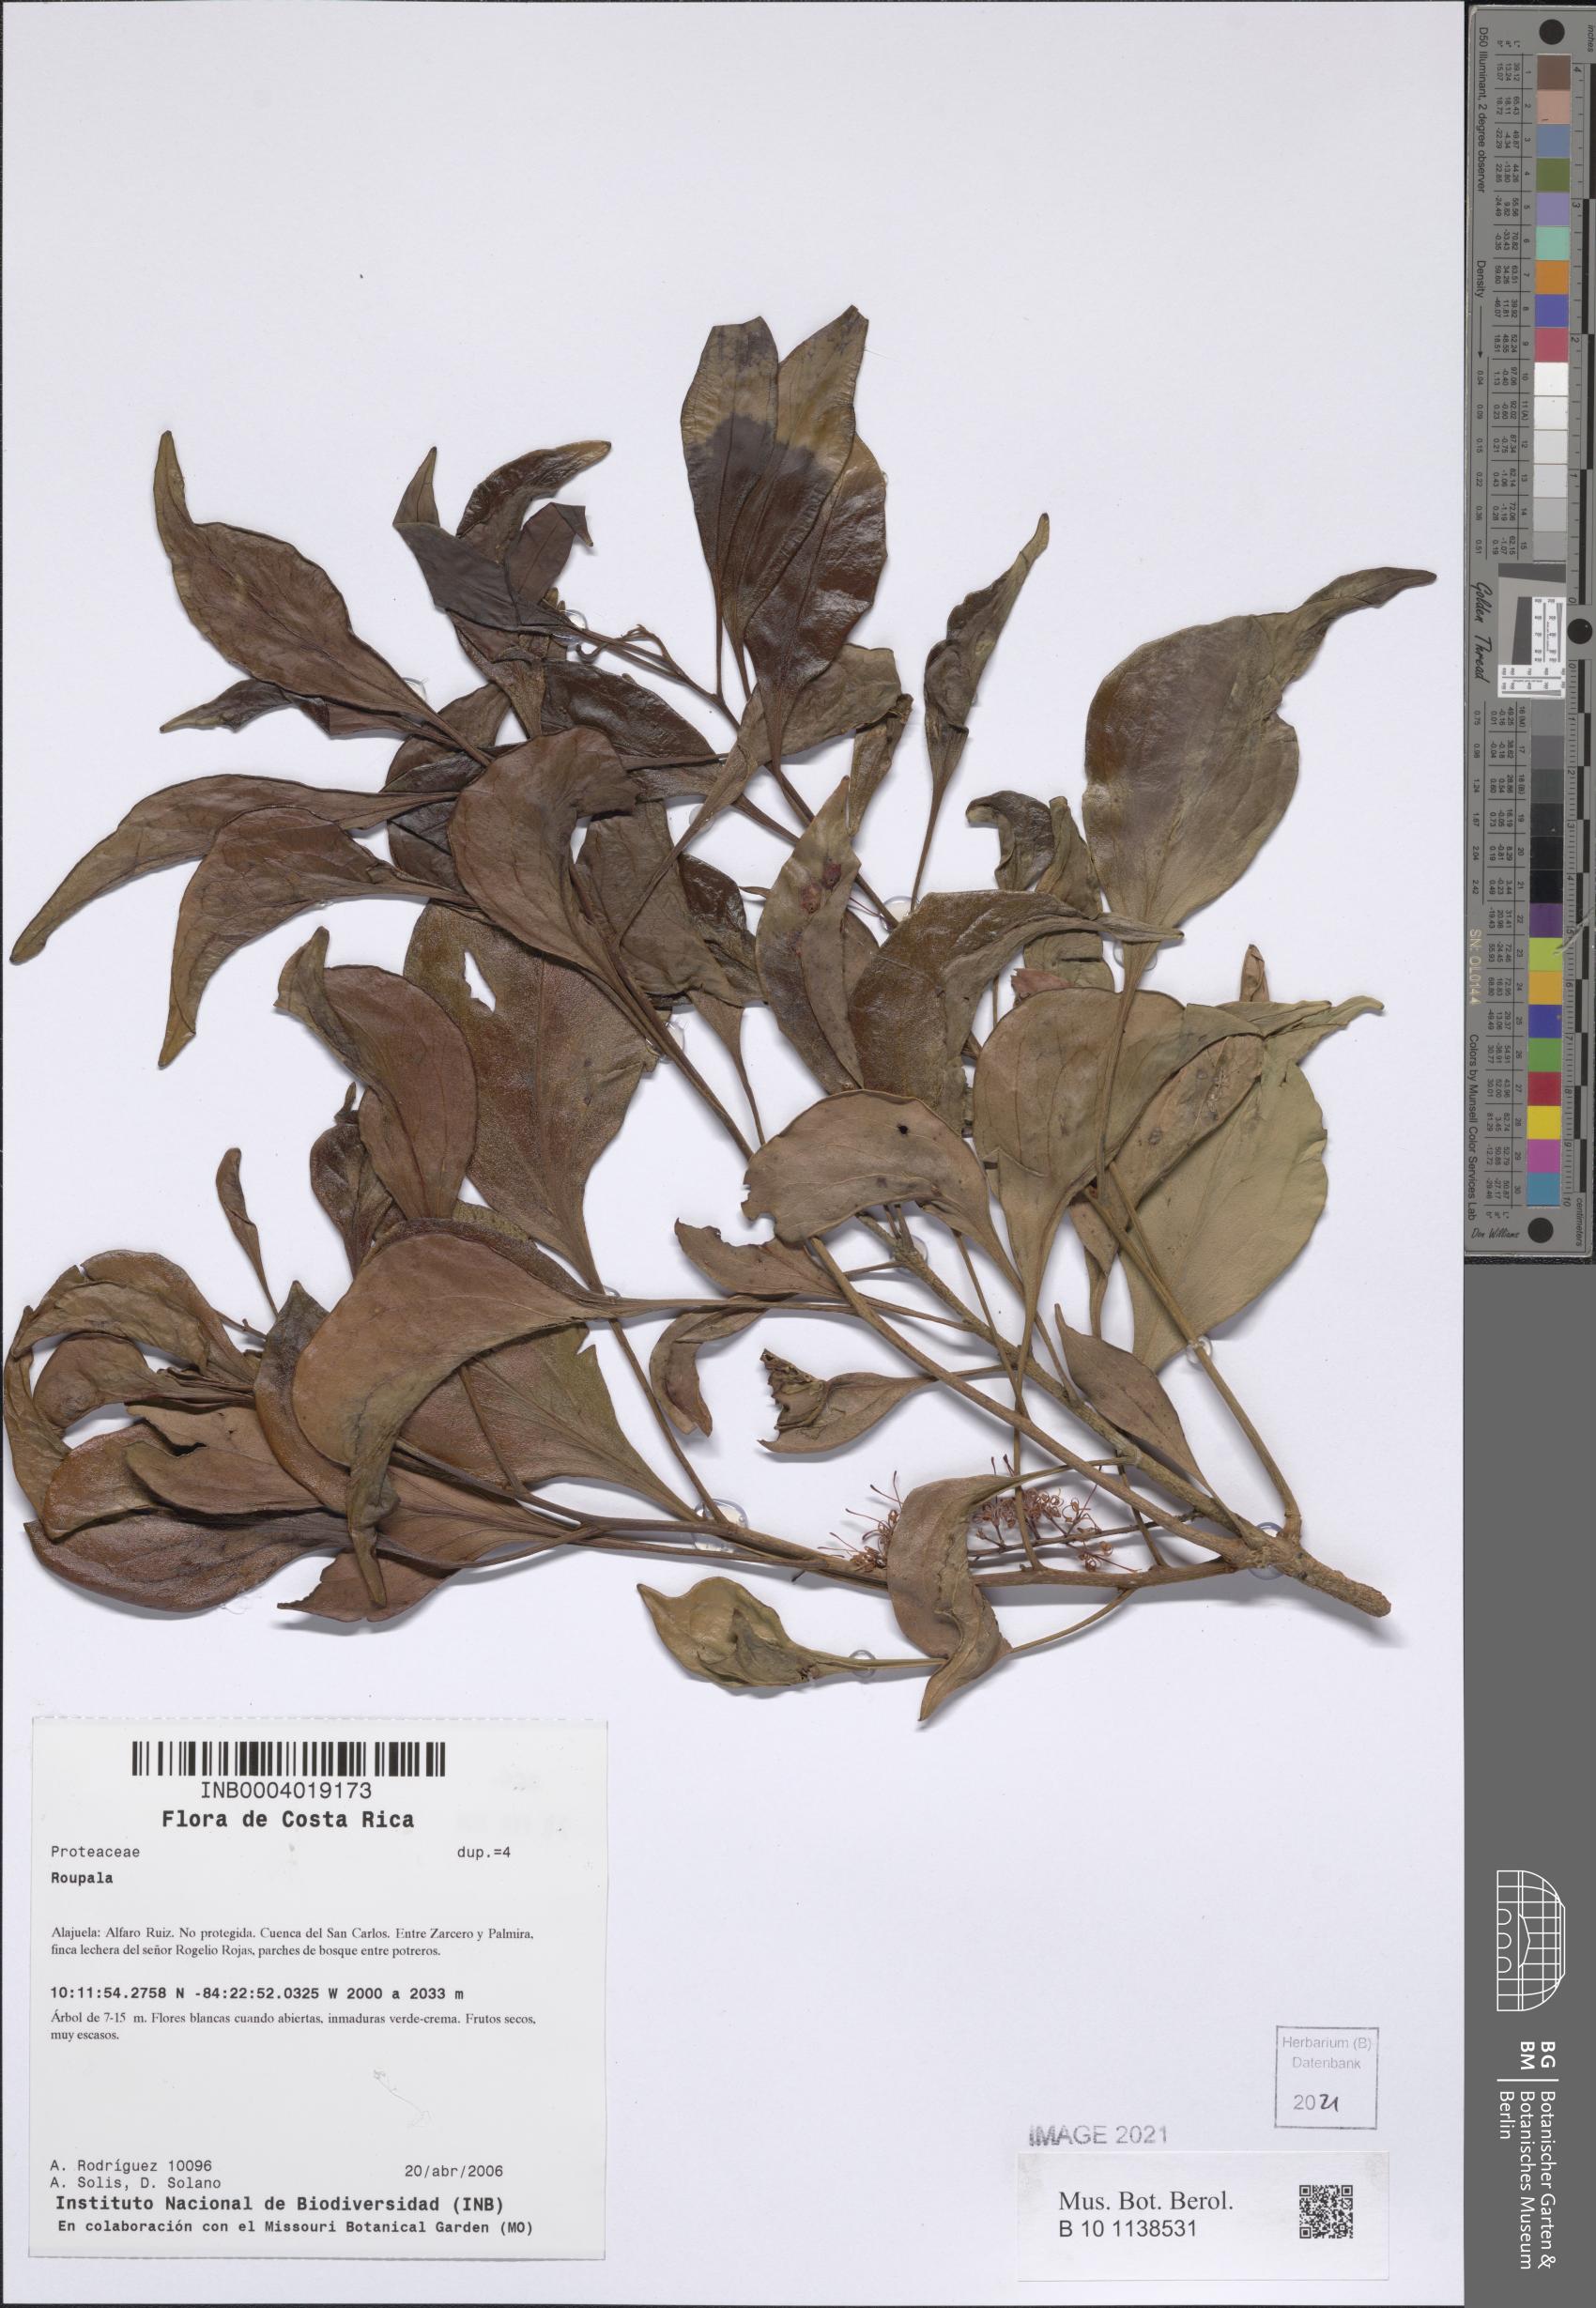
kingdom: Plantae
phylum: Tracheophyta
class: Magnoliopsida
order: Proteales
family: Proteaceae
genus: Roupala
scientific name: Roupala
